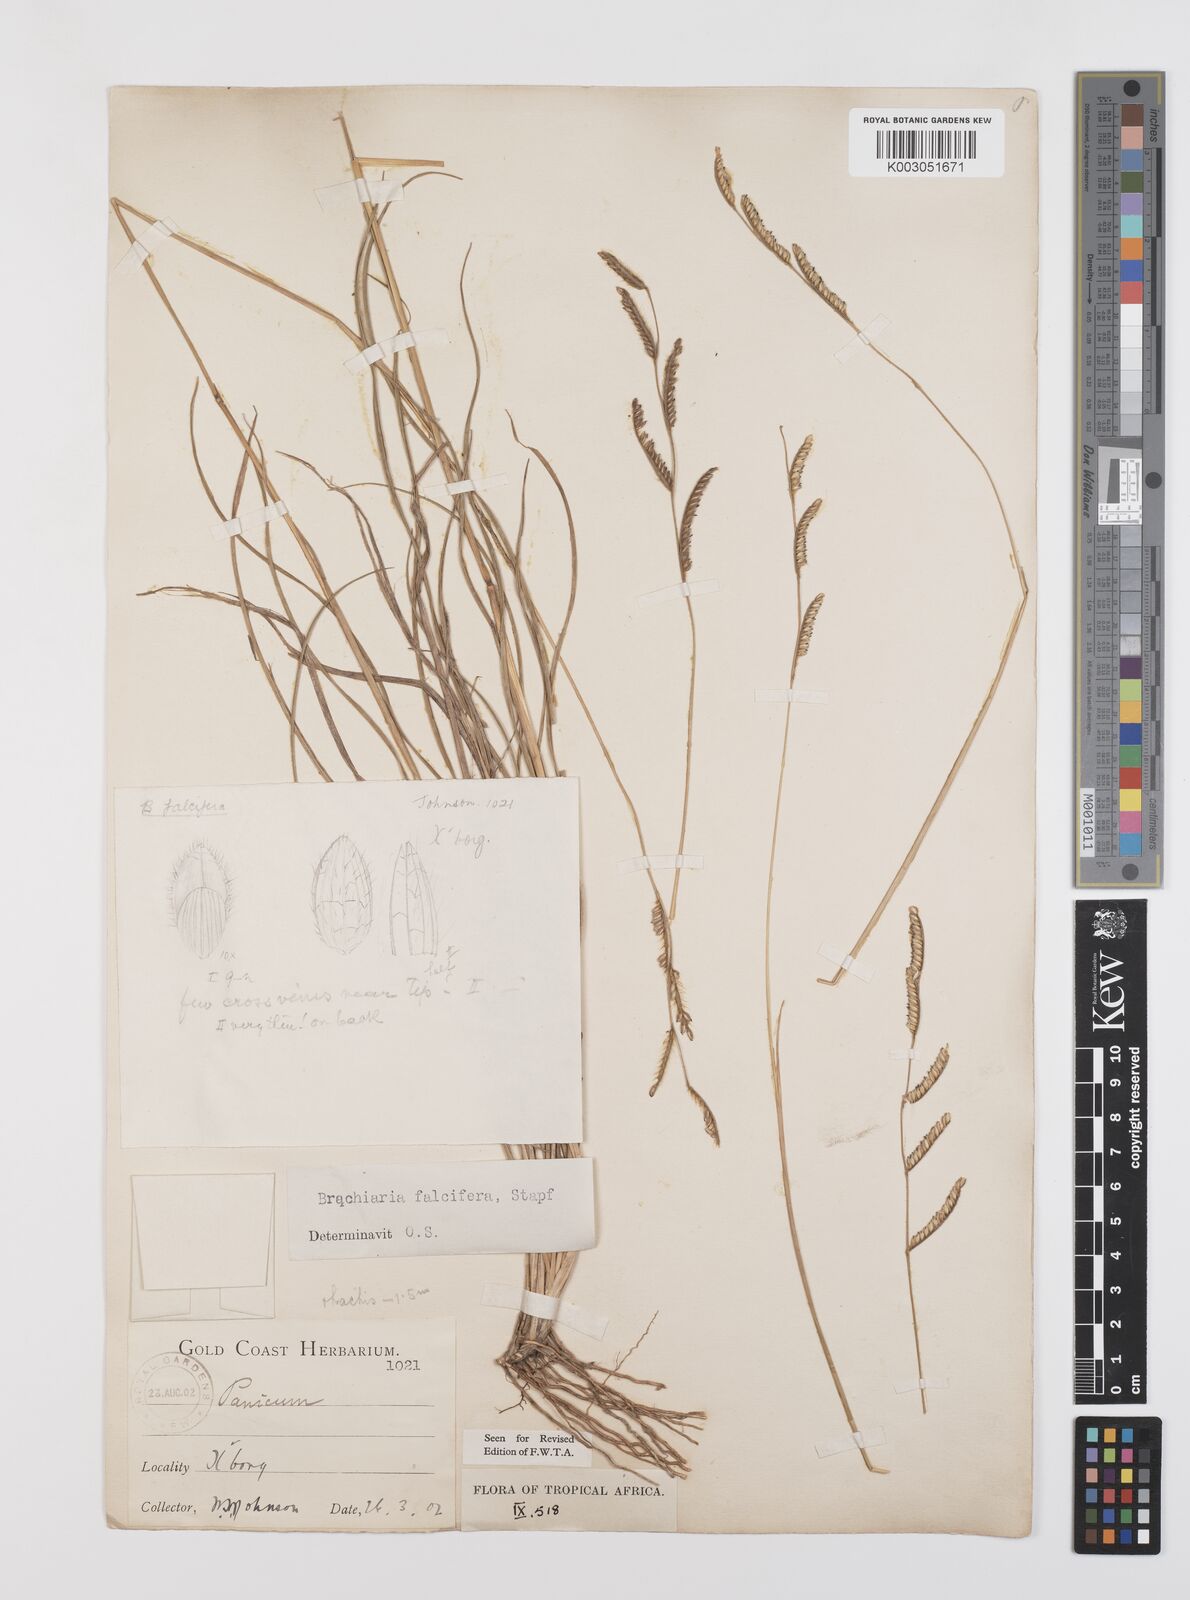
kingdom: Plantae
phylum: Tracheophyta
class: Liliopsida
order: Poales
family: Poaceae
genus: Urochloa
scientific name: Urochloa falcifera
